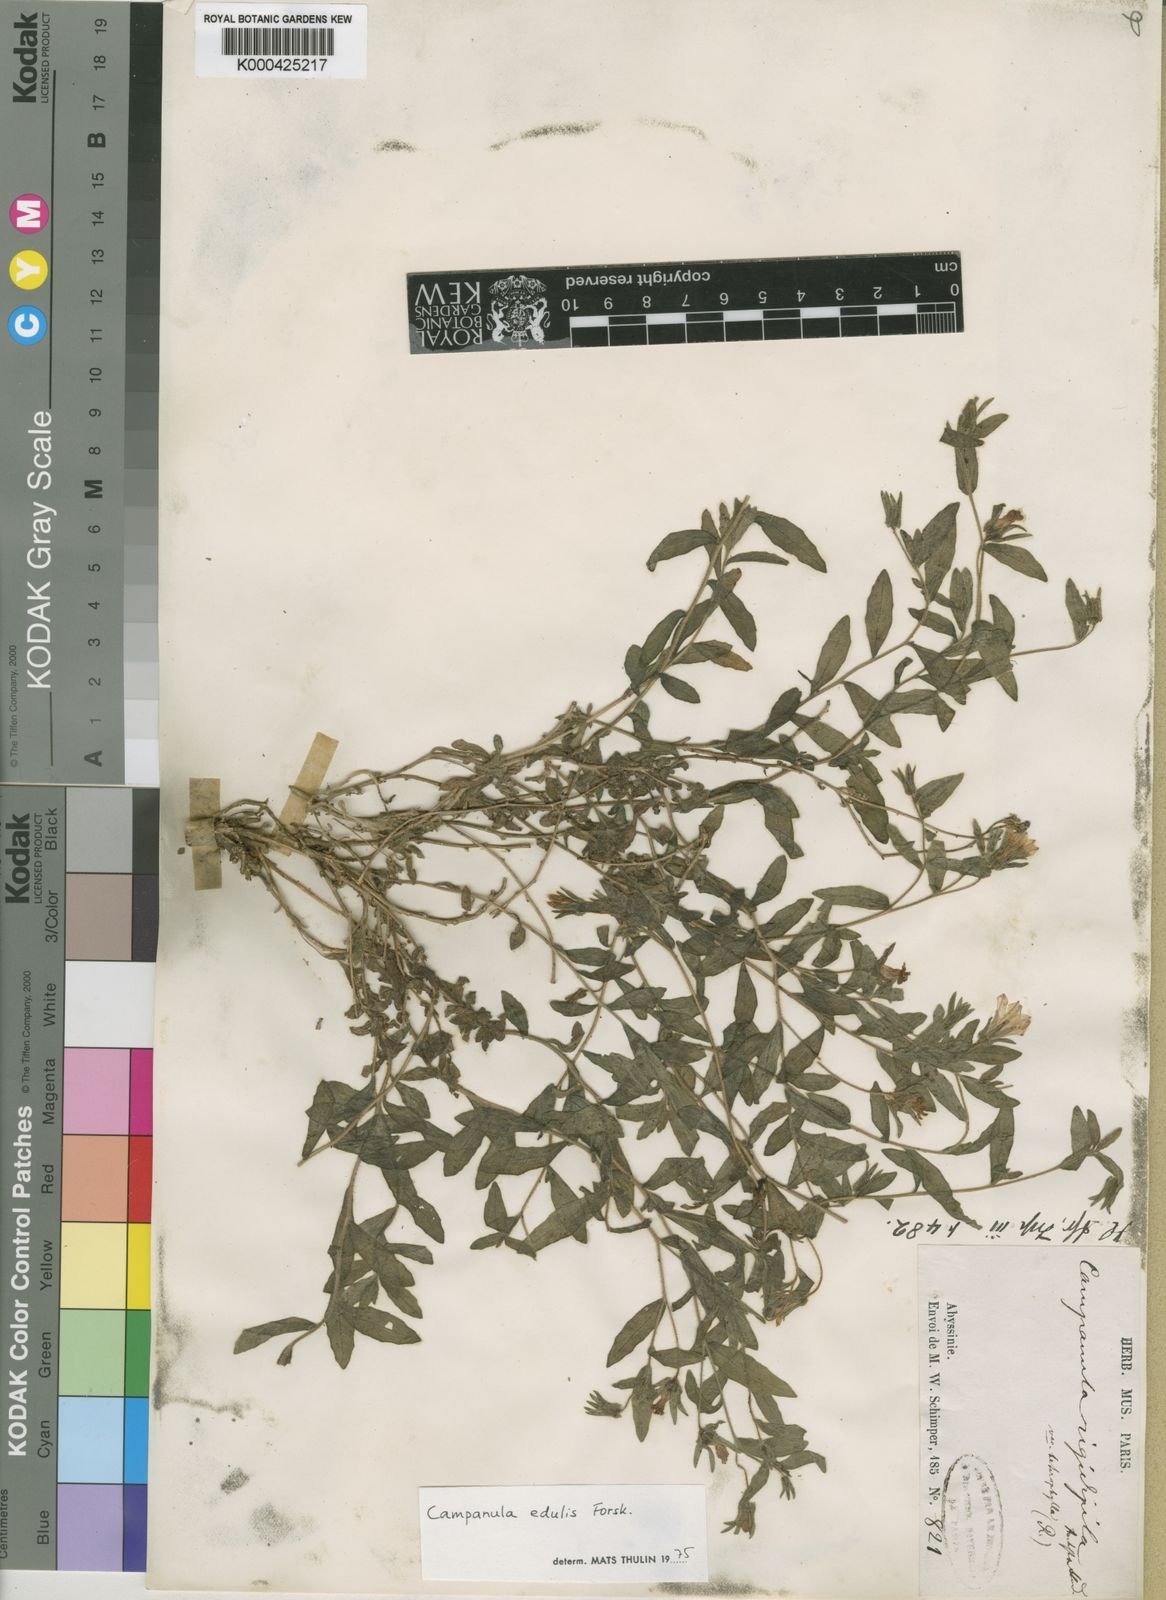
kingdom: Plantae
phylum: Tracheophyta
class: Magnoliopsida
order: Asterales
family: Campanulaceae
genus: Campanula
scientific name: Campanula edulis
